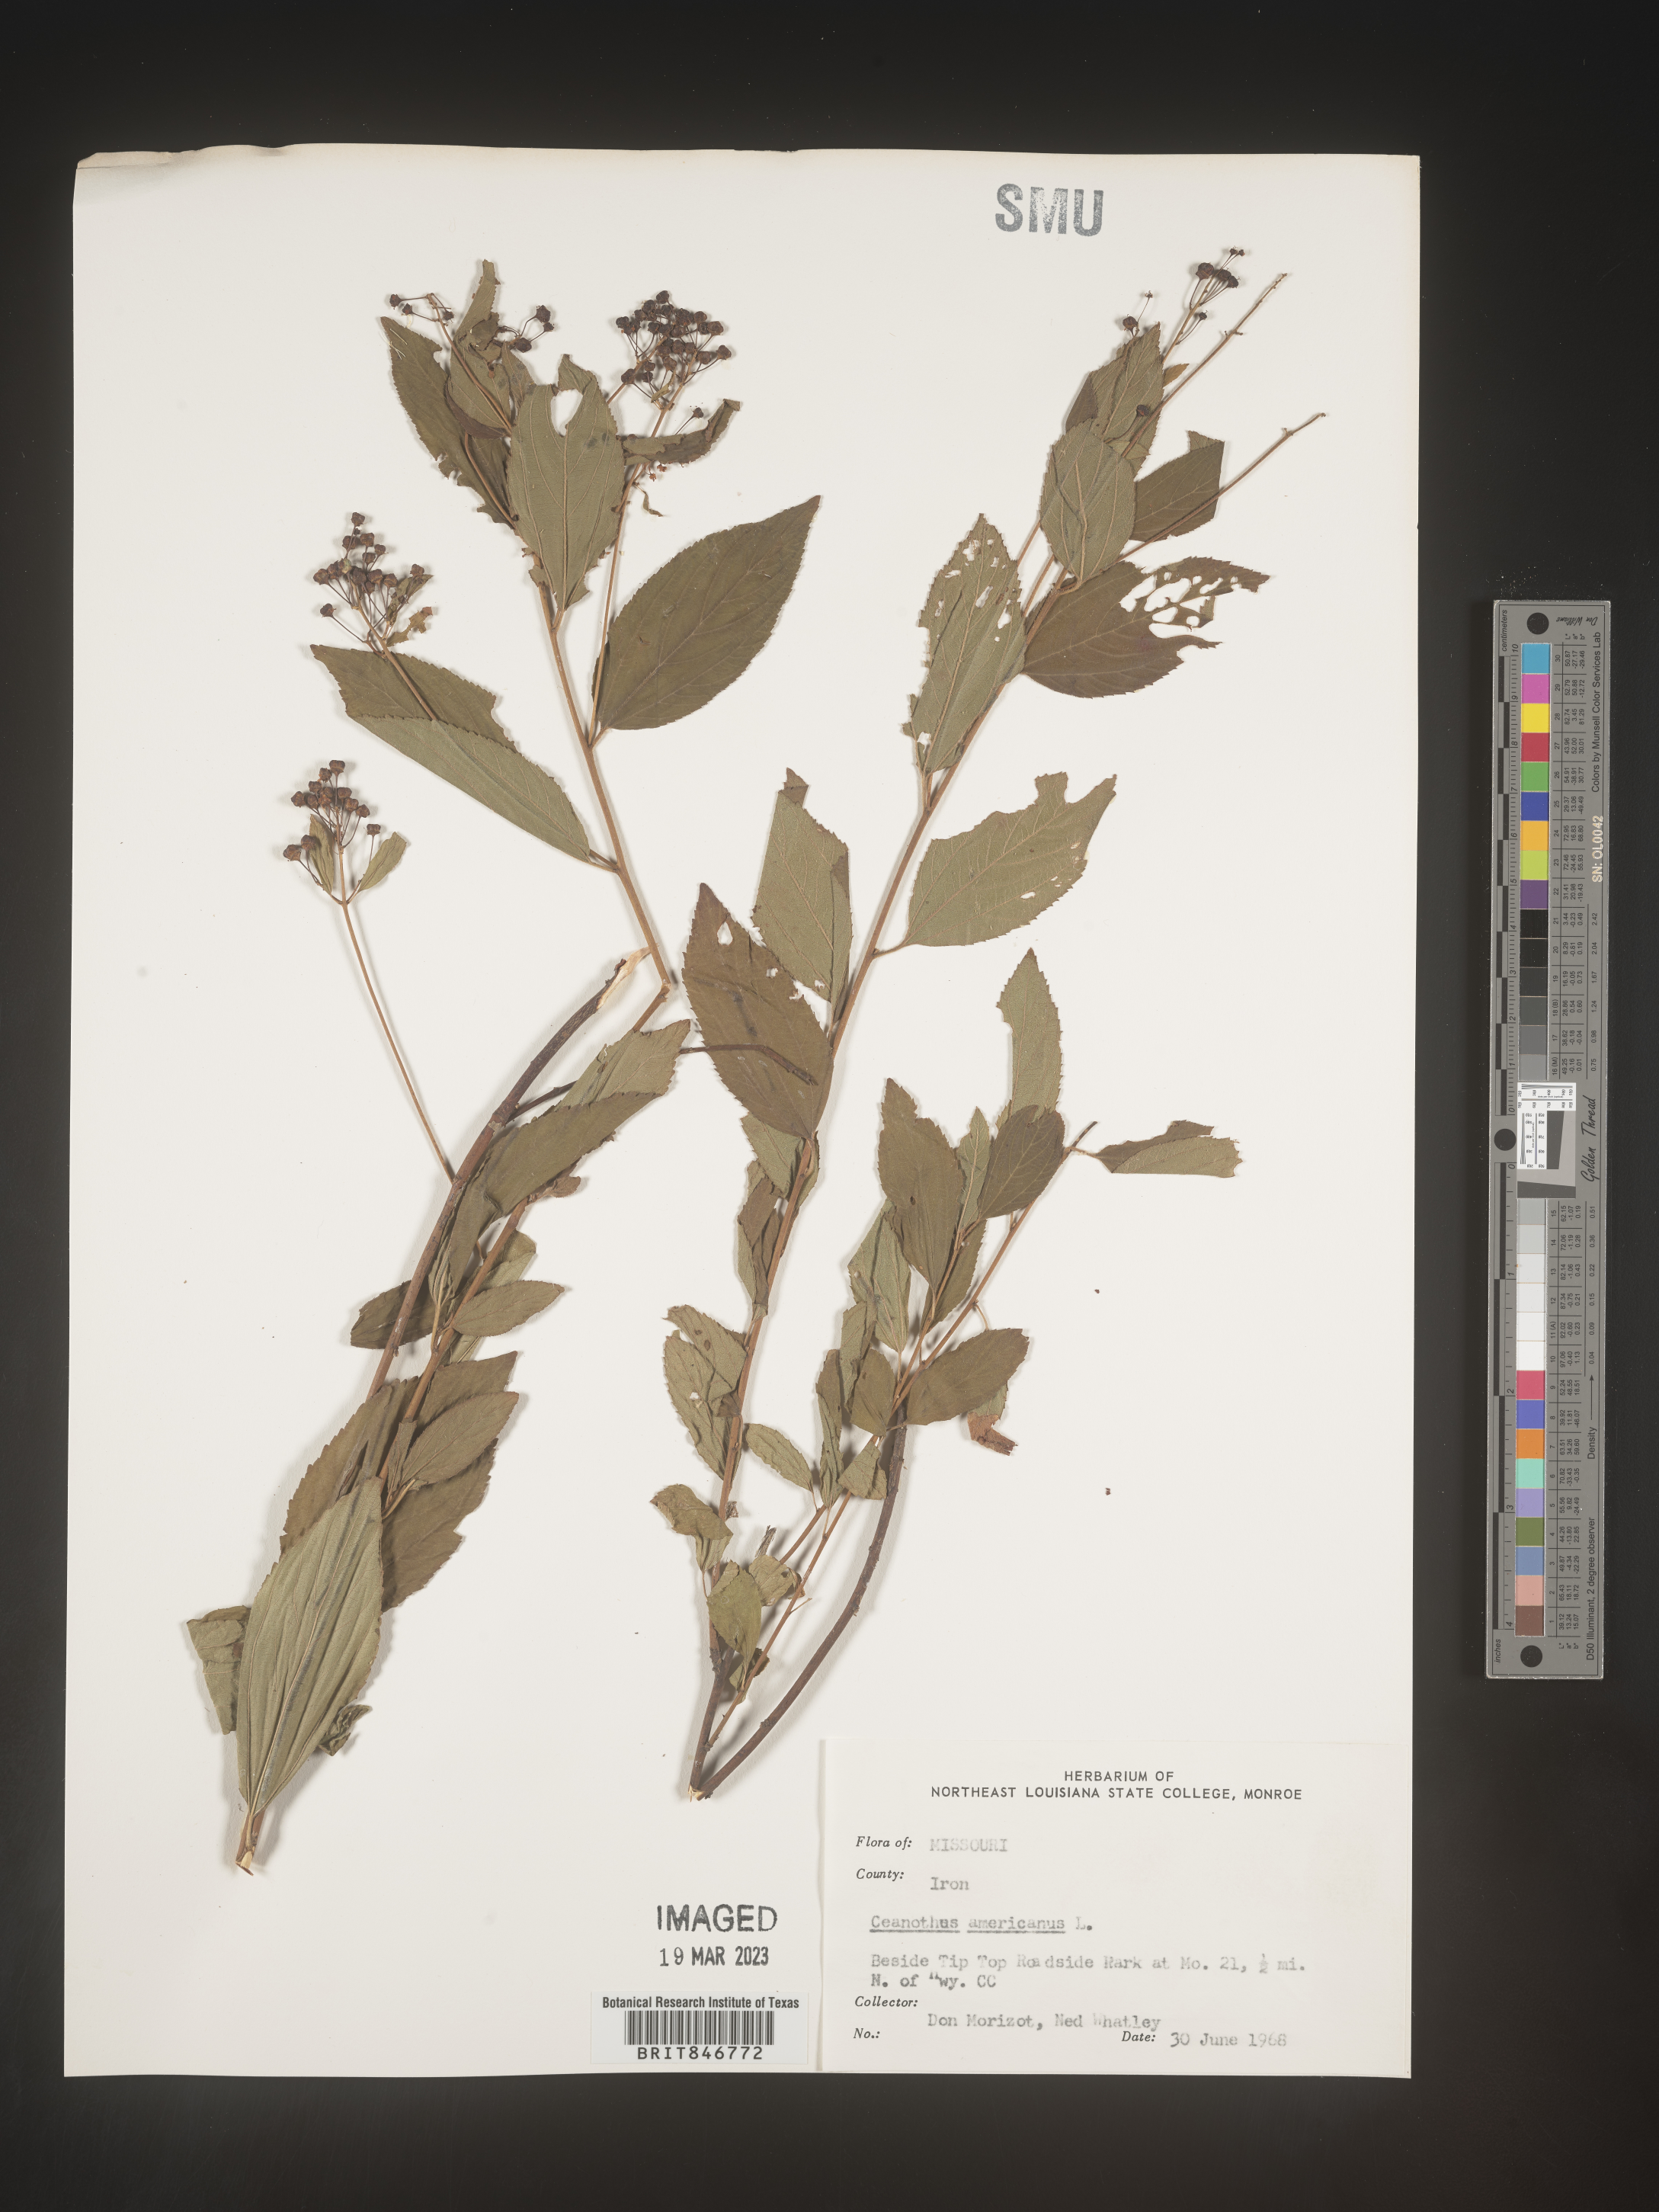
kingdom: Plantae
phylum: Tracheophyta
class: Magnoliopsida
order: Rosales
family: Rhamnaceae
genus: Ceanothus
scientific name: Ceanothus americanus
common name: Redroot
